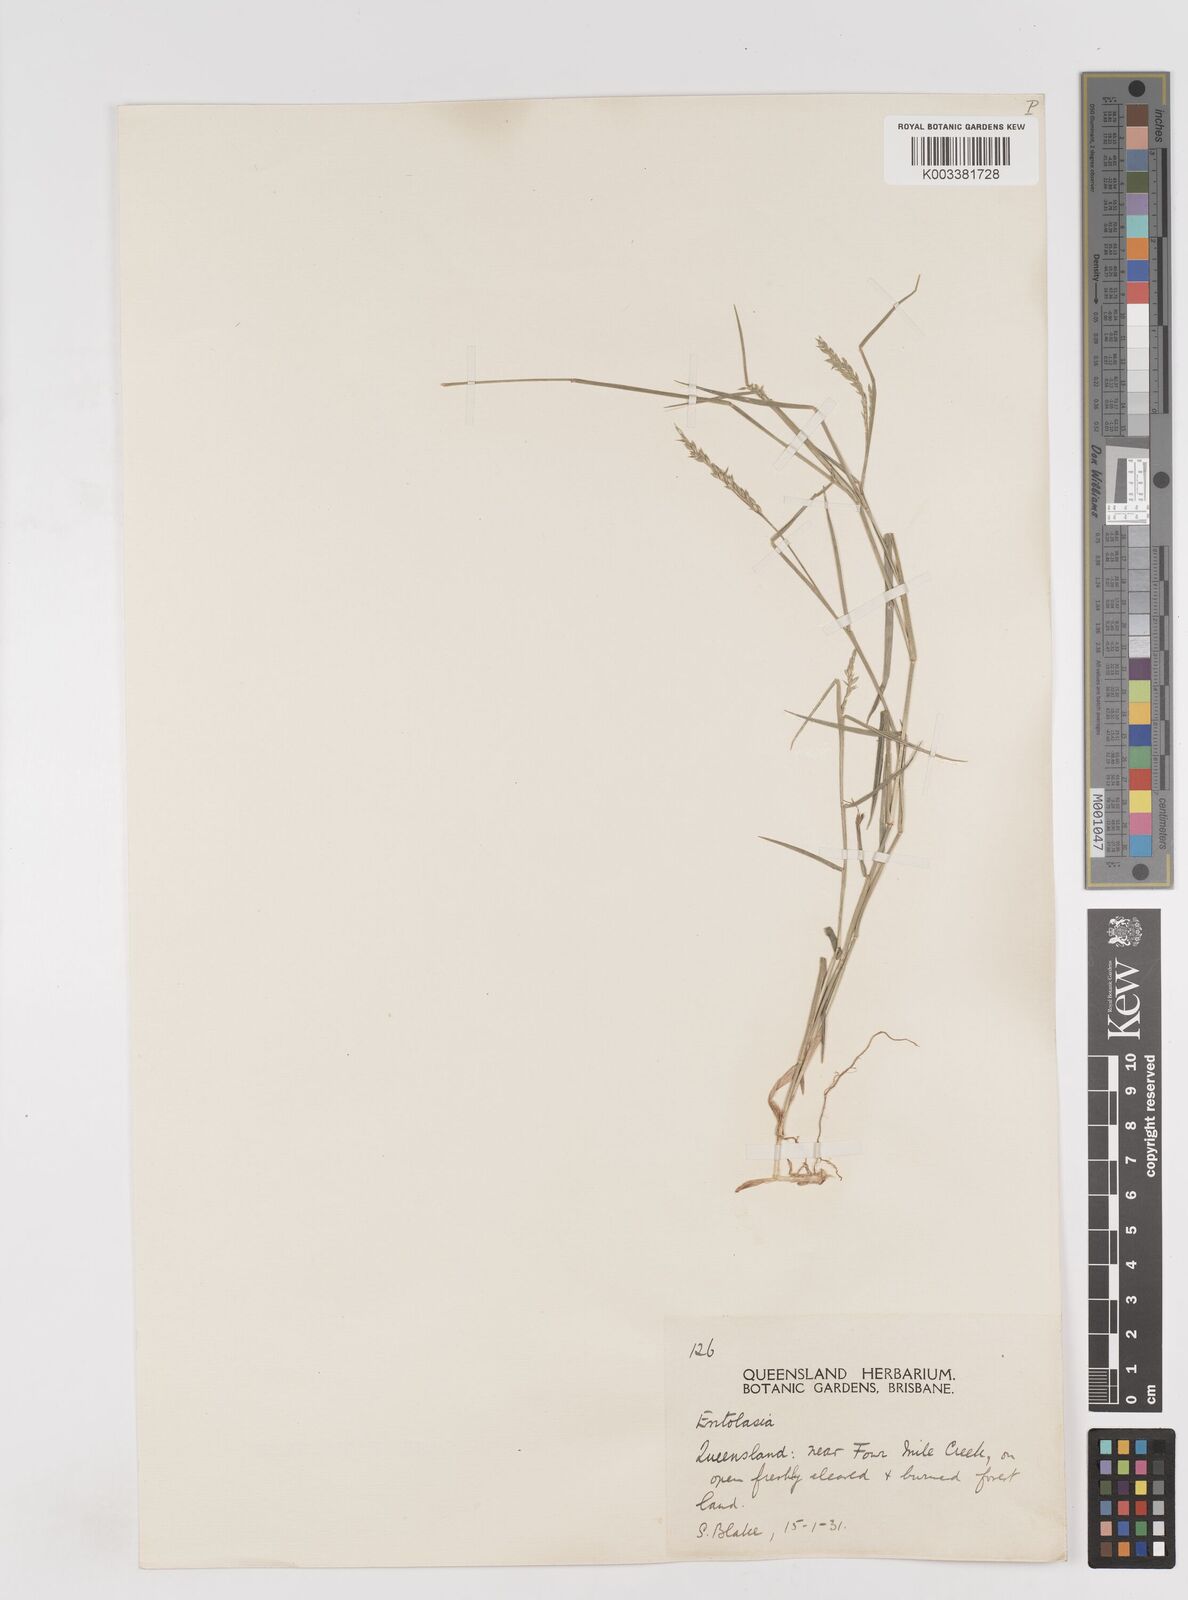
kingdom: Plantae
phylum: Tracheophyta
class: Liliopsida
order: Poales
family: Poaceae
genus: Entolasia
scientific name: Entolasia stricta
